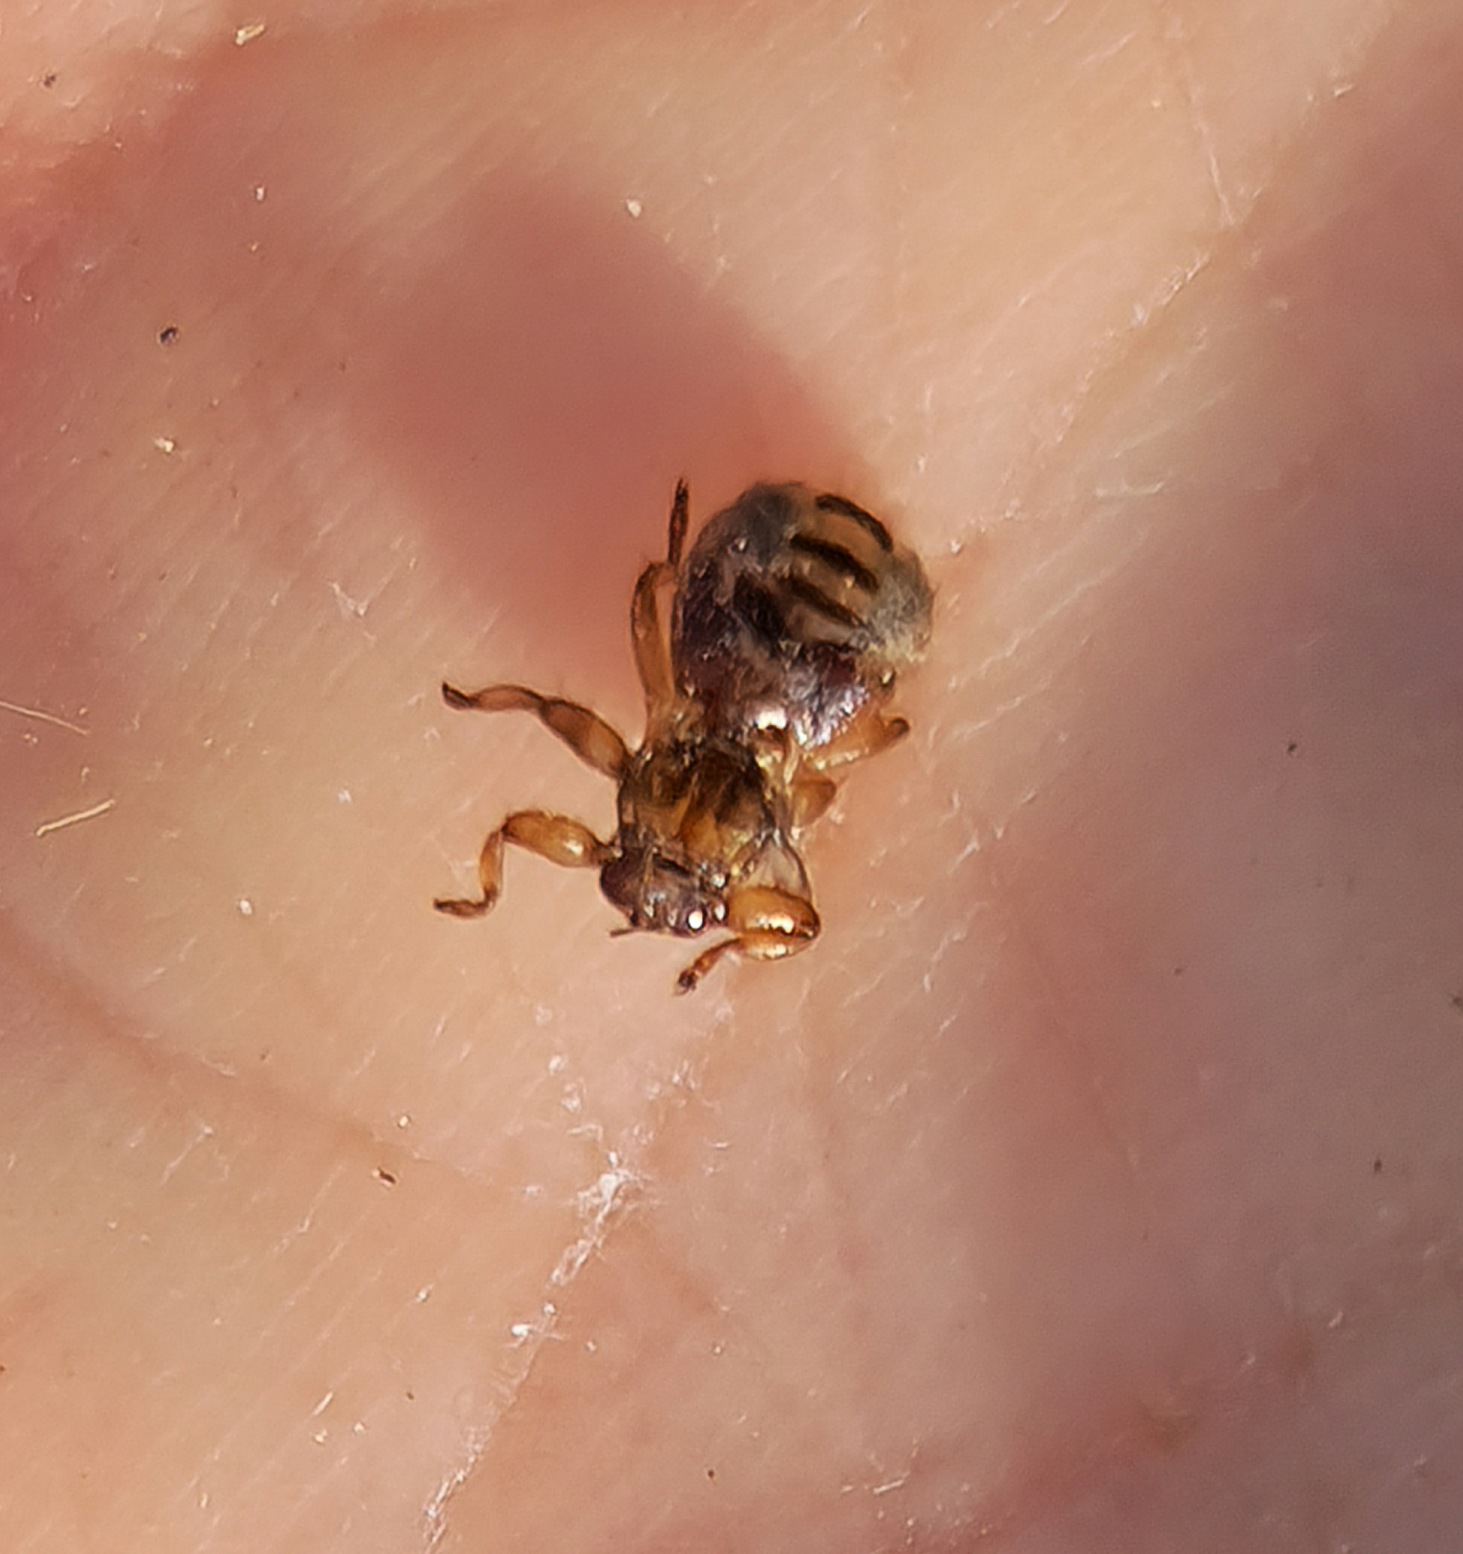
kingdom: Animalia
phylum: Arthropoda
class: Insecta
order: Diptera
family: Hippoboscidae
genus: Lipoptena
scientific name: Lipoptena cervi
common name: Hjortelus
